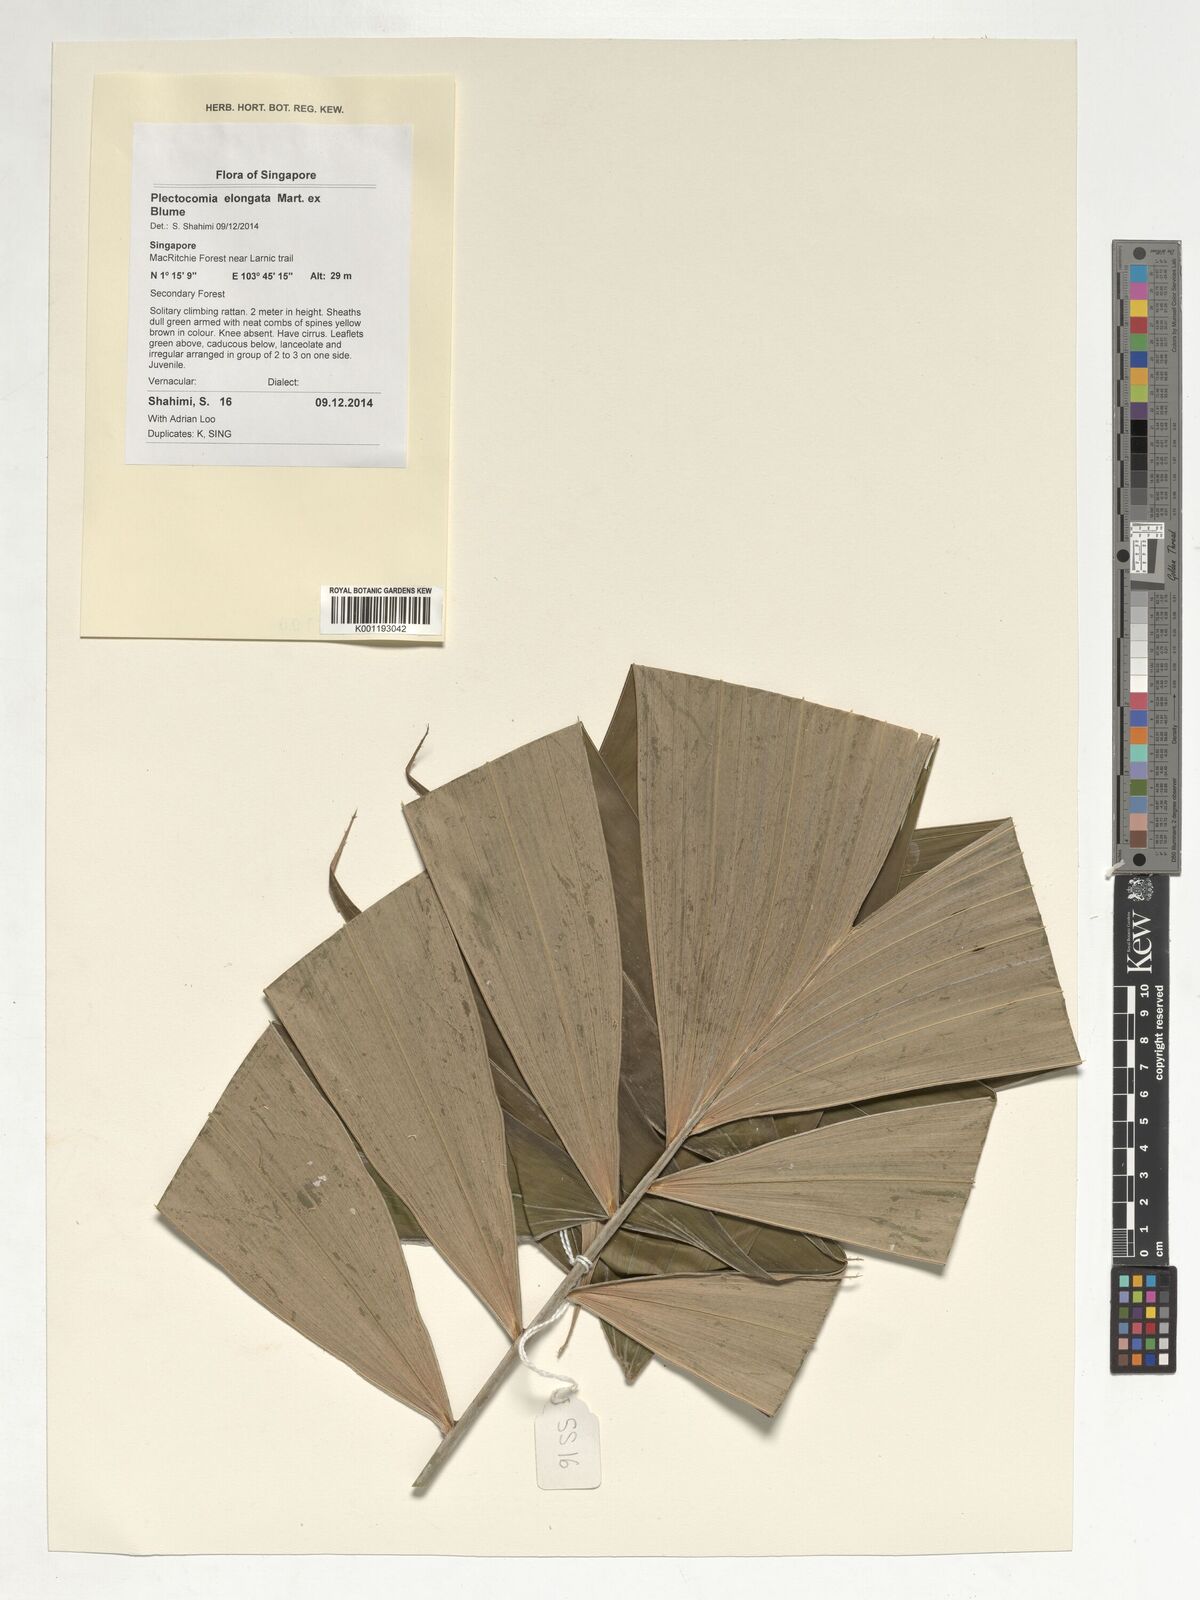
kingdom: Plantae
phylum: Tracheophyta
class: Liliopsida
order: Arecales
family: Arecaceae
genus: Plectocomia
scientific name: Plectocomia elongata
